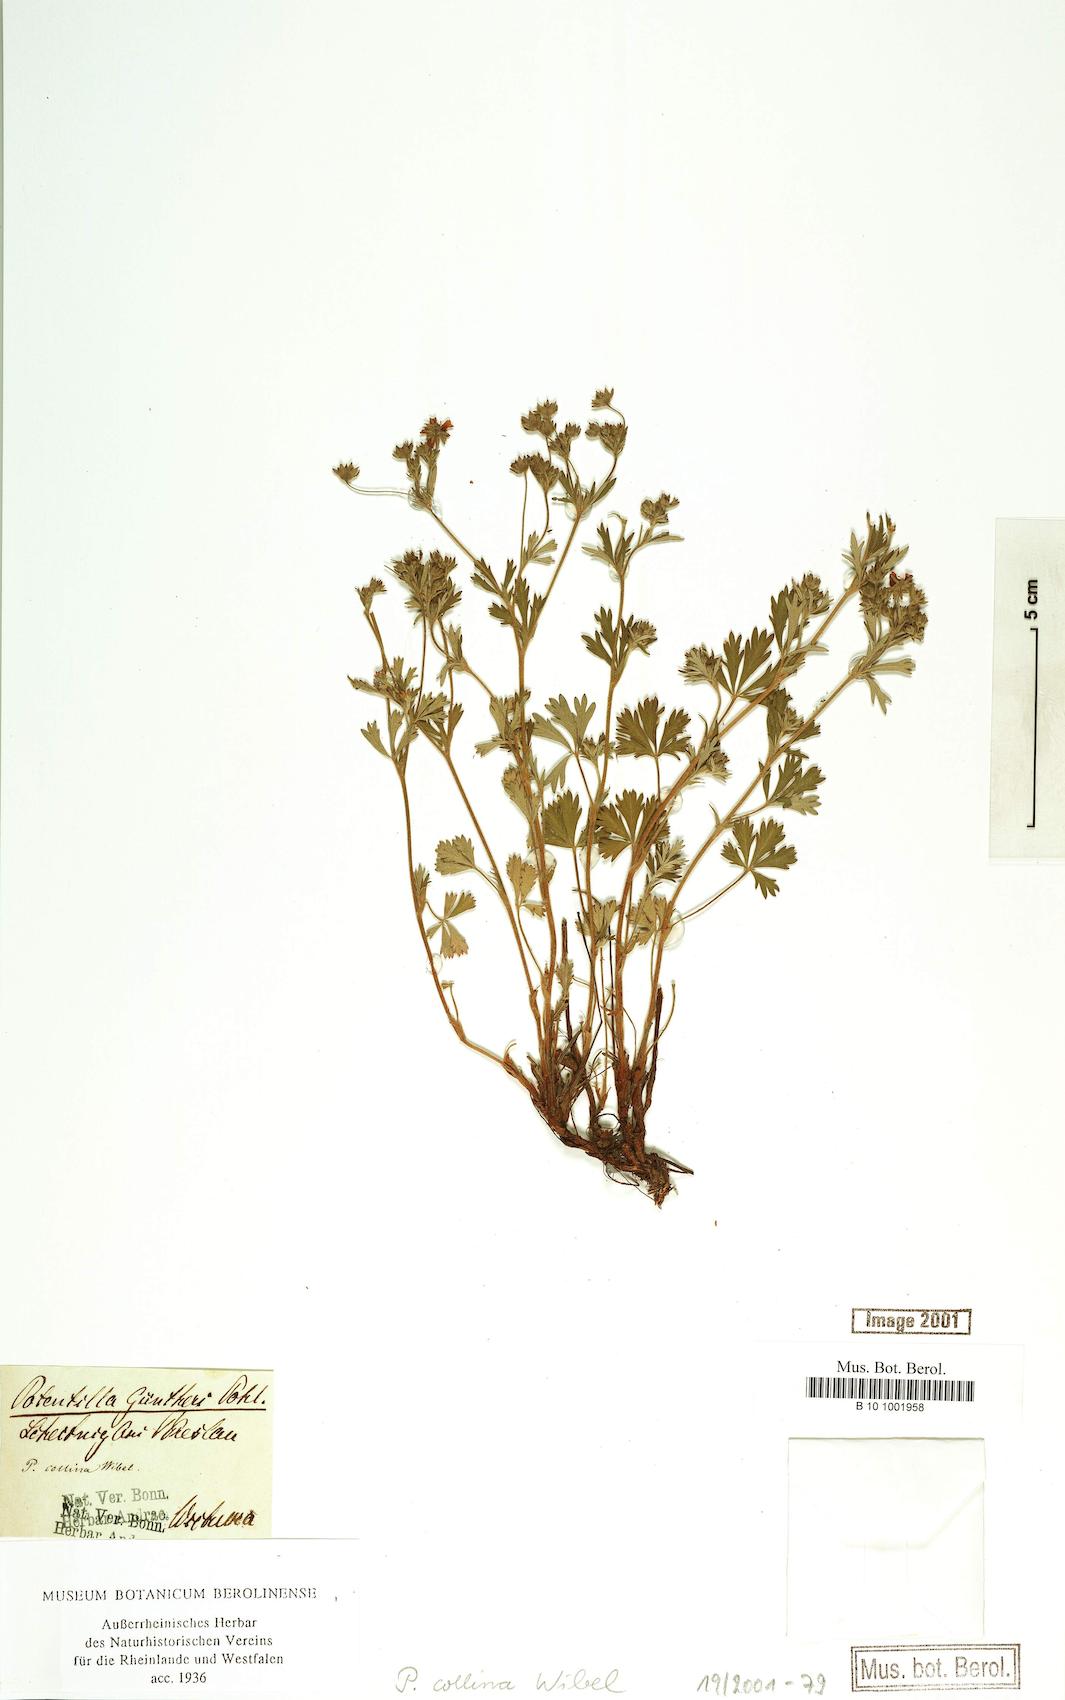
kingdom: Plantae
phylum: Tracheophyta
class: Magnoliopsida
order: Rosales
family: Rosaceae
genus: Potentilla
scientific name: Potentilla collina
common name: Palmleaf cinquefoil
